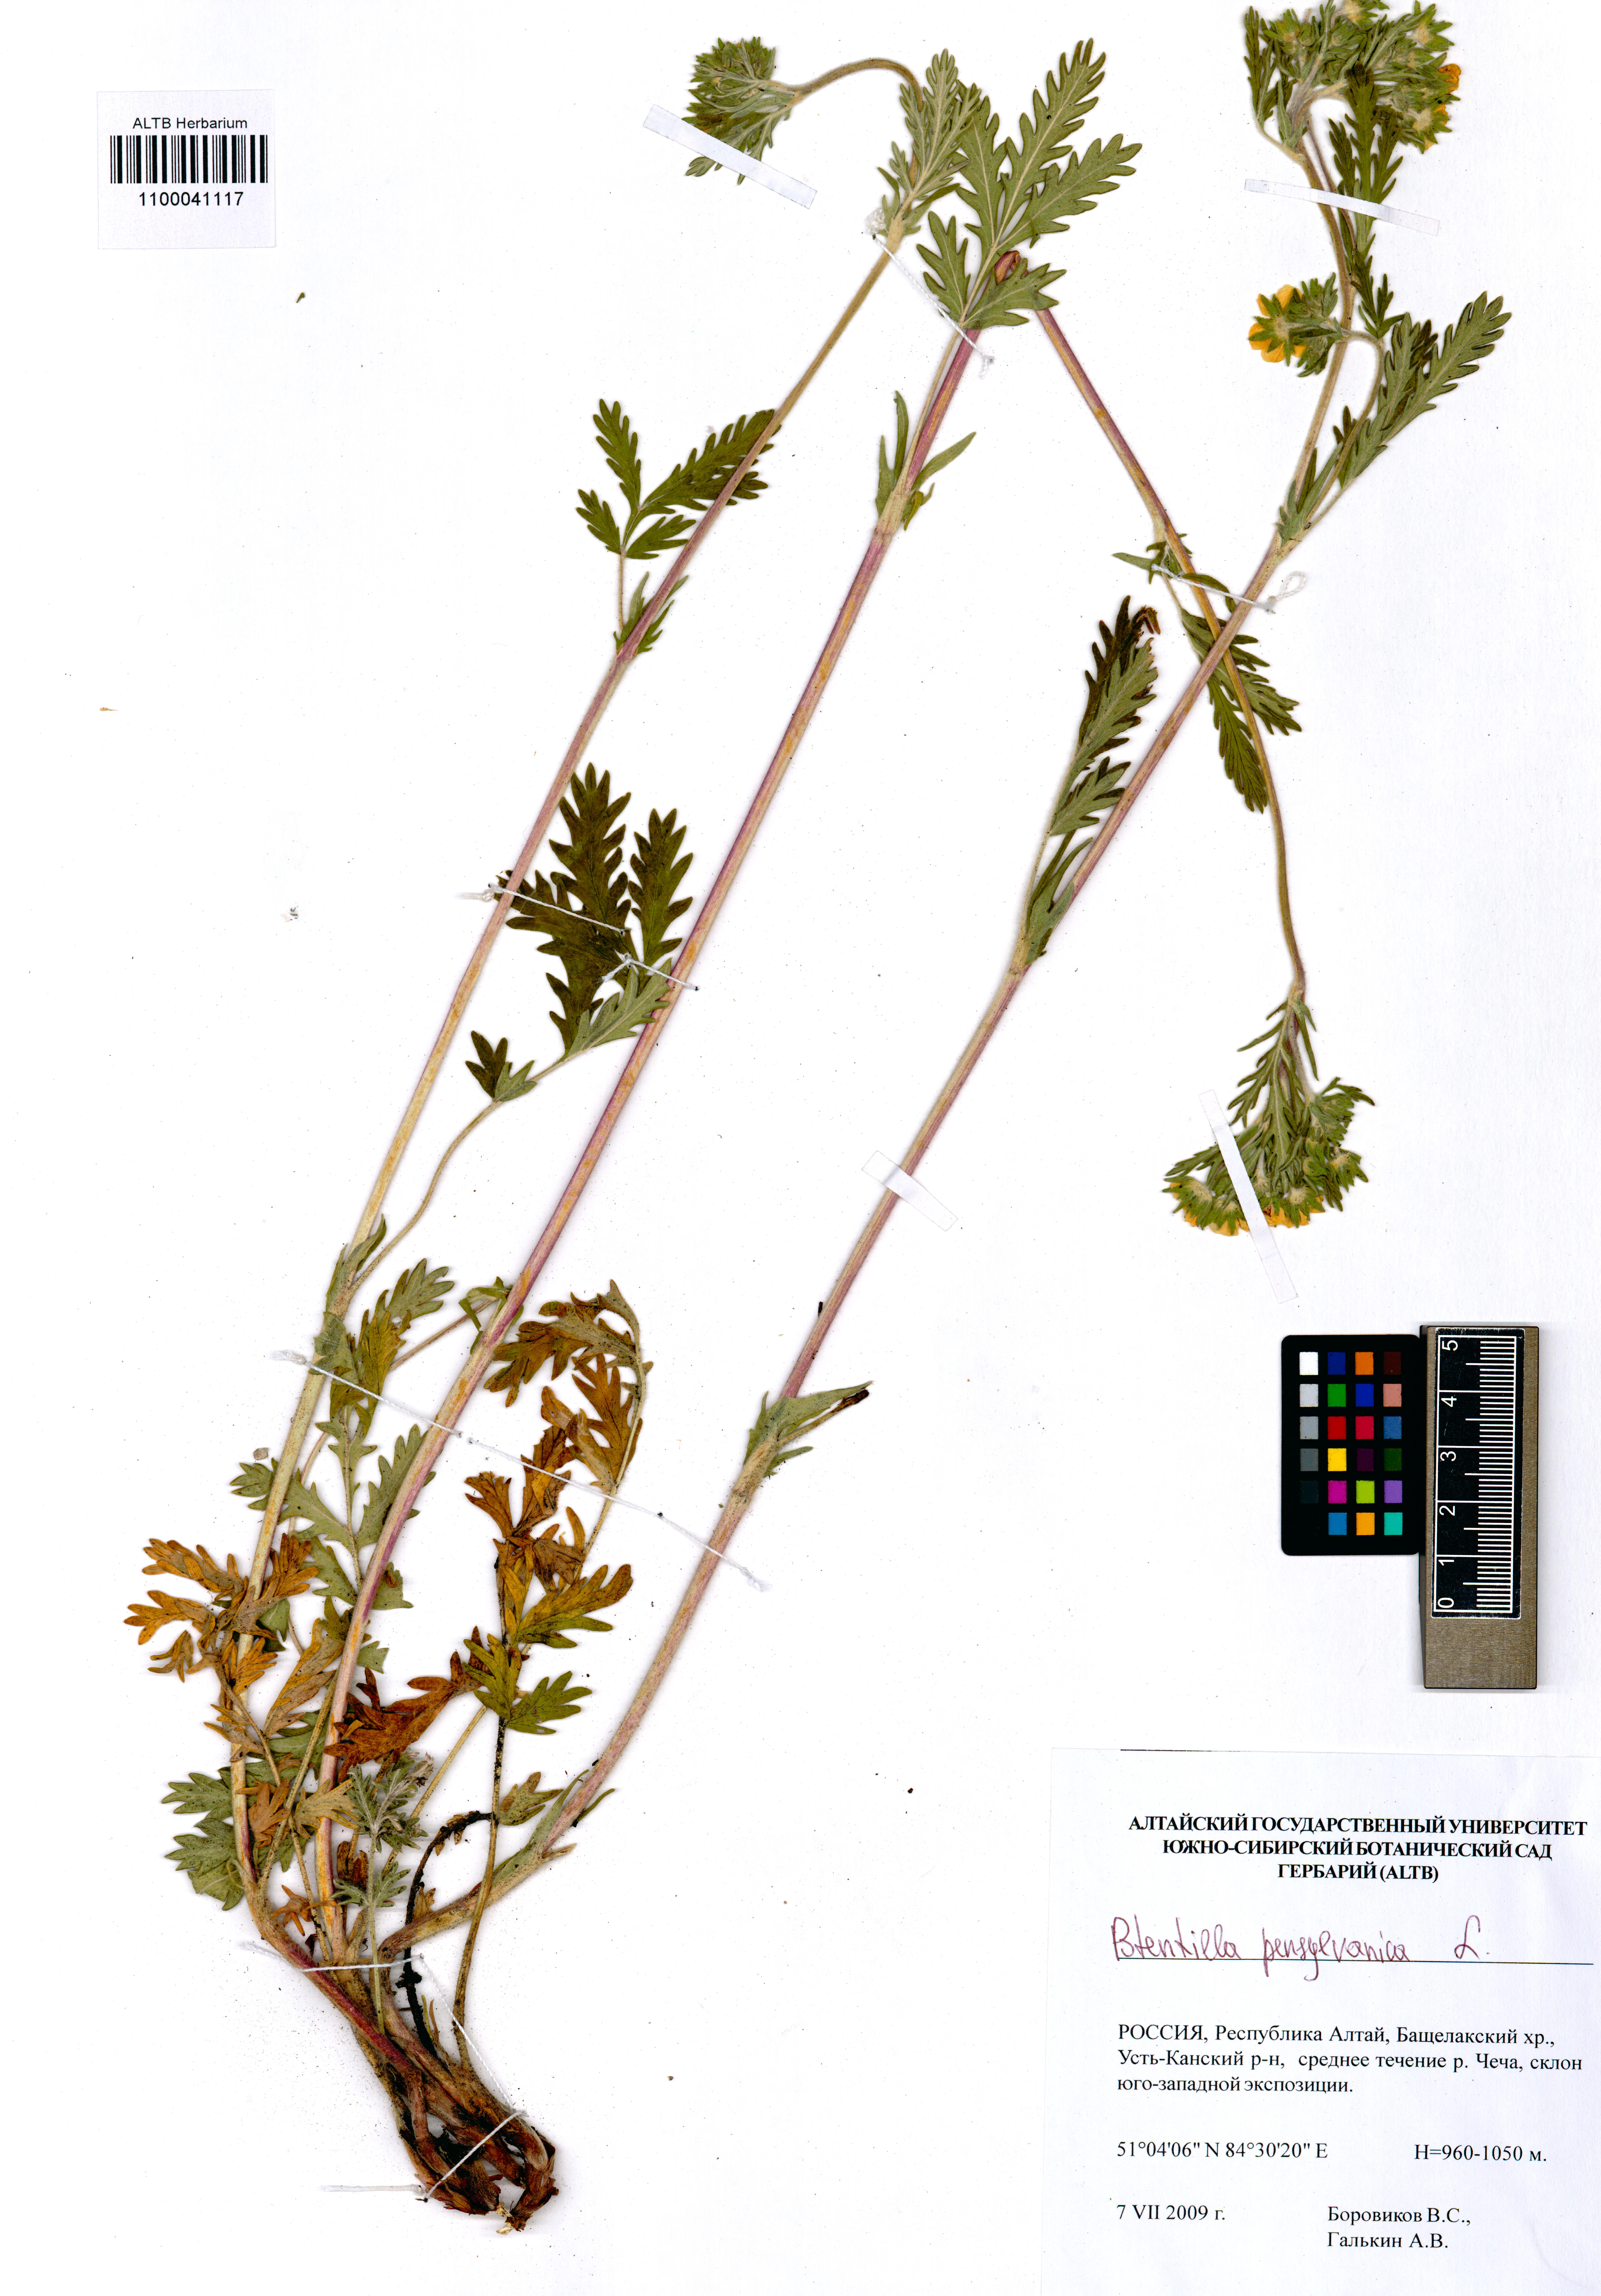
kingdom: Plantae
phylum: Tracheophyta
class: Magnoliopsida
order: Rosales
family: Rosaceae
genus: Potentilla
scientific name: Potentilla pensylvanica
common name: Pennsylvania cinquefoil
